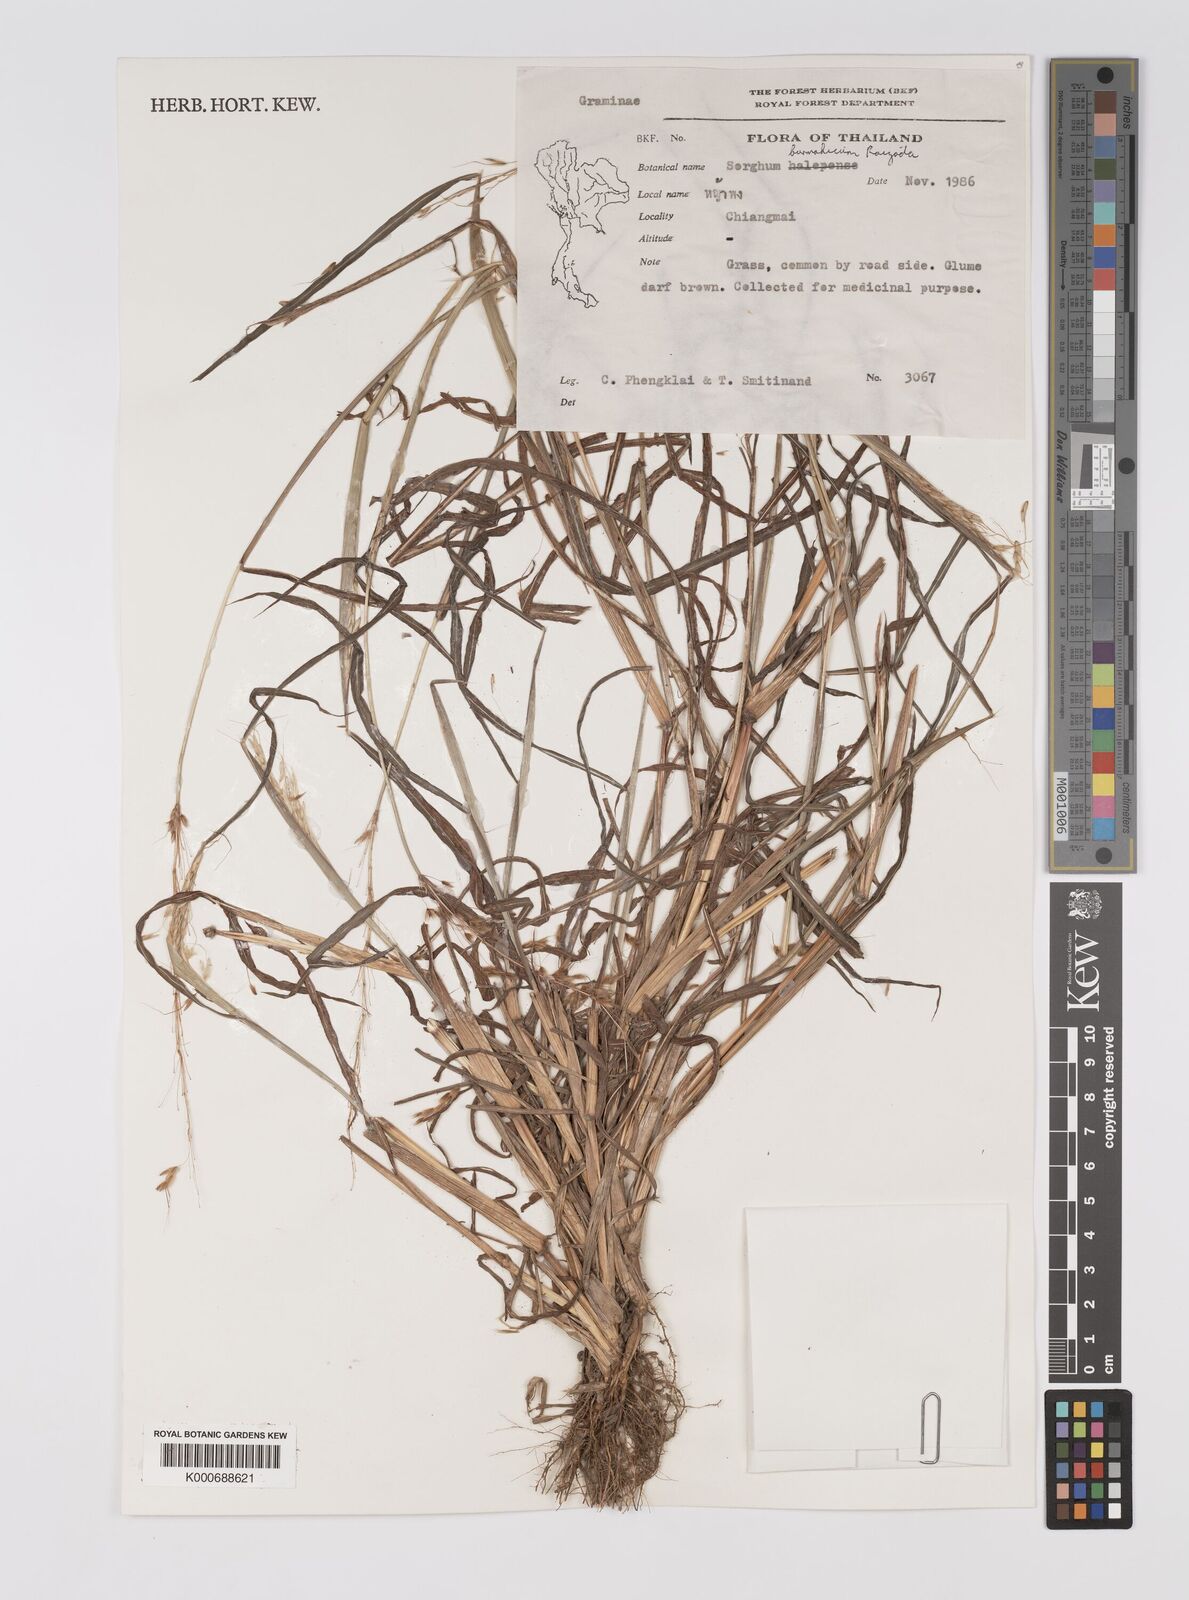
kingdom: Plantae
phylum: Tracheophyta
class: Liliopsida
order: Poales
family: Poaceae
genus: Sorghum
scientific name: Sorghum burmahicum
